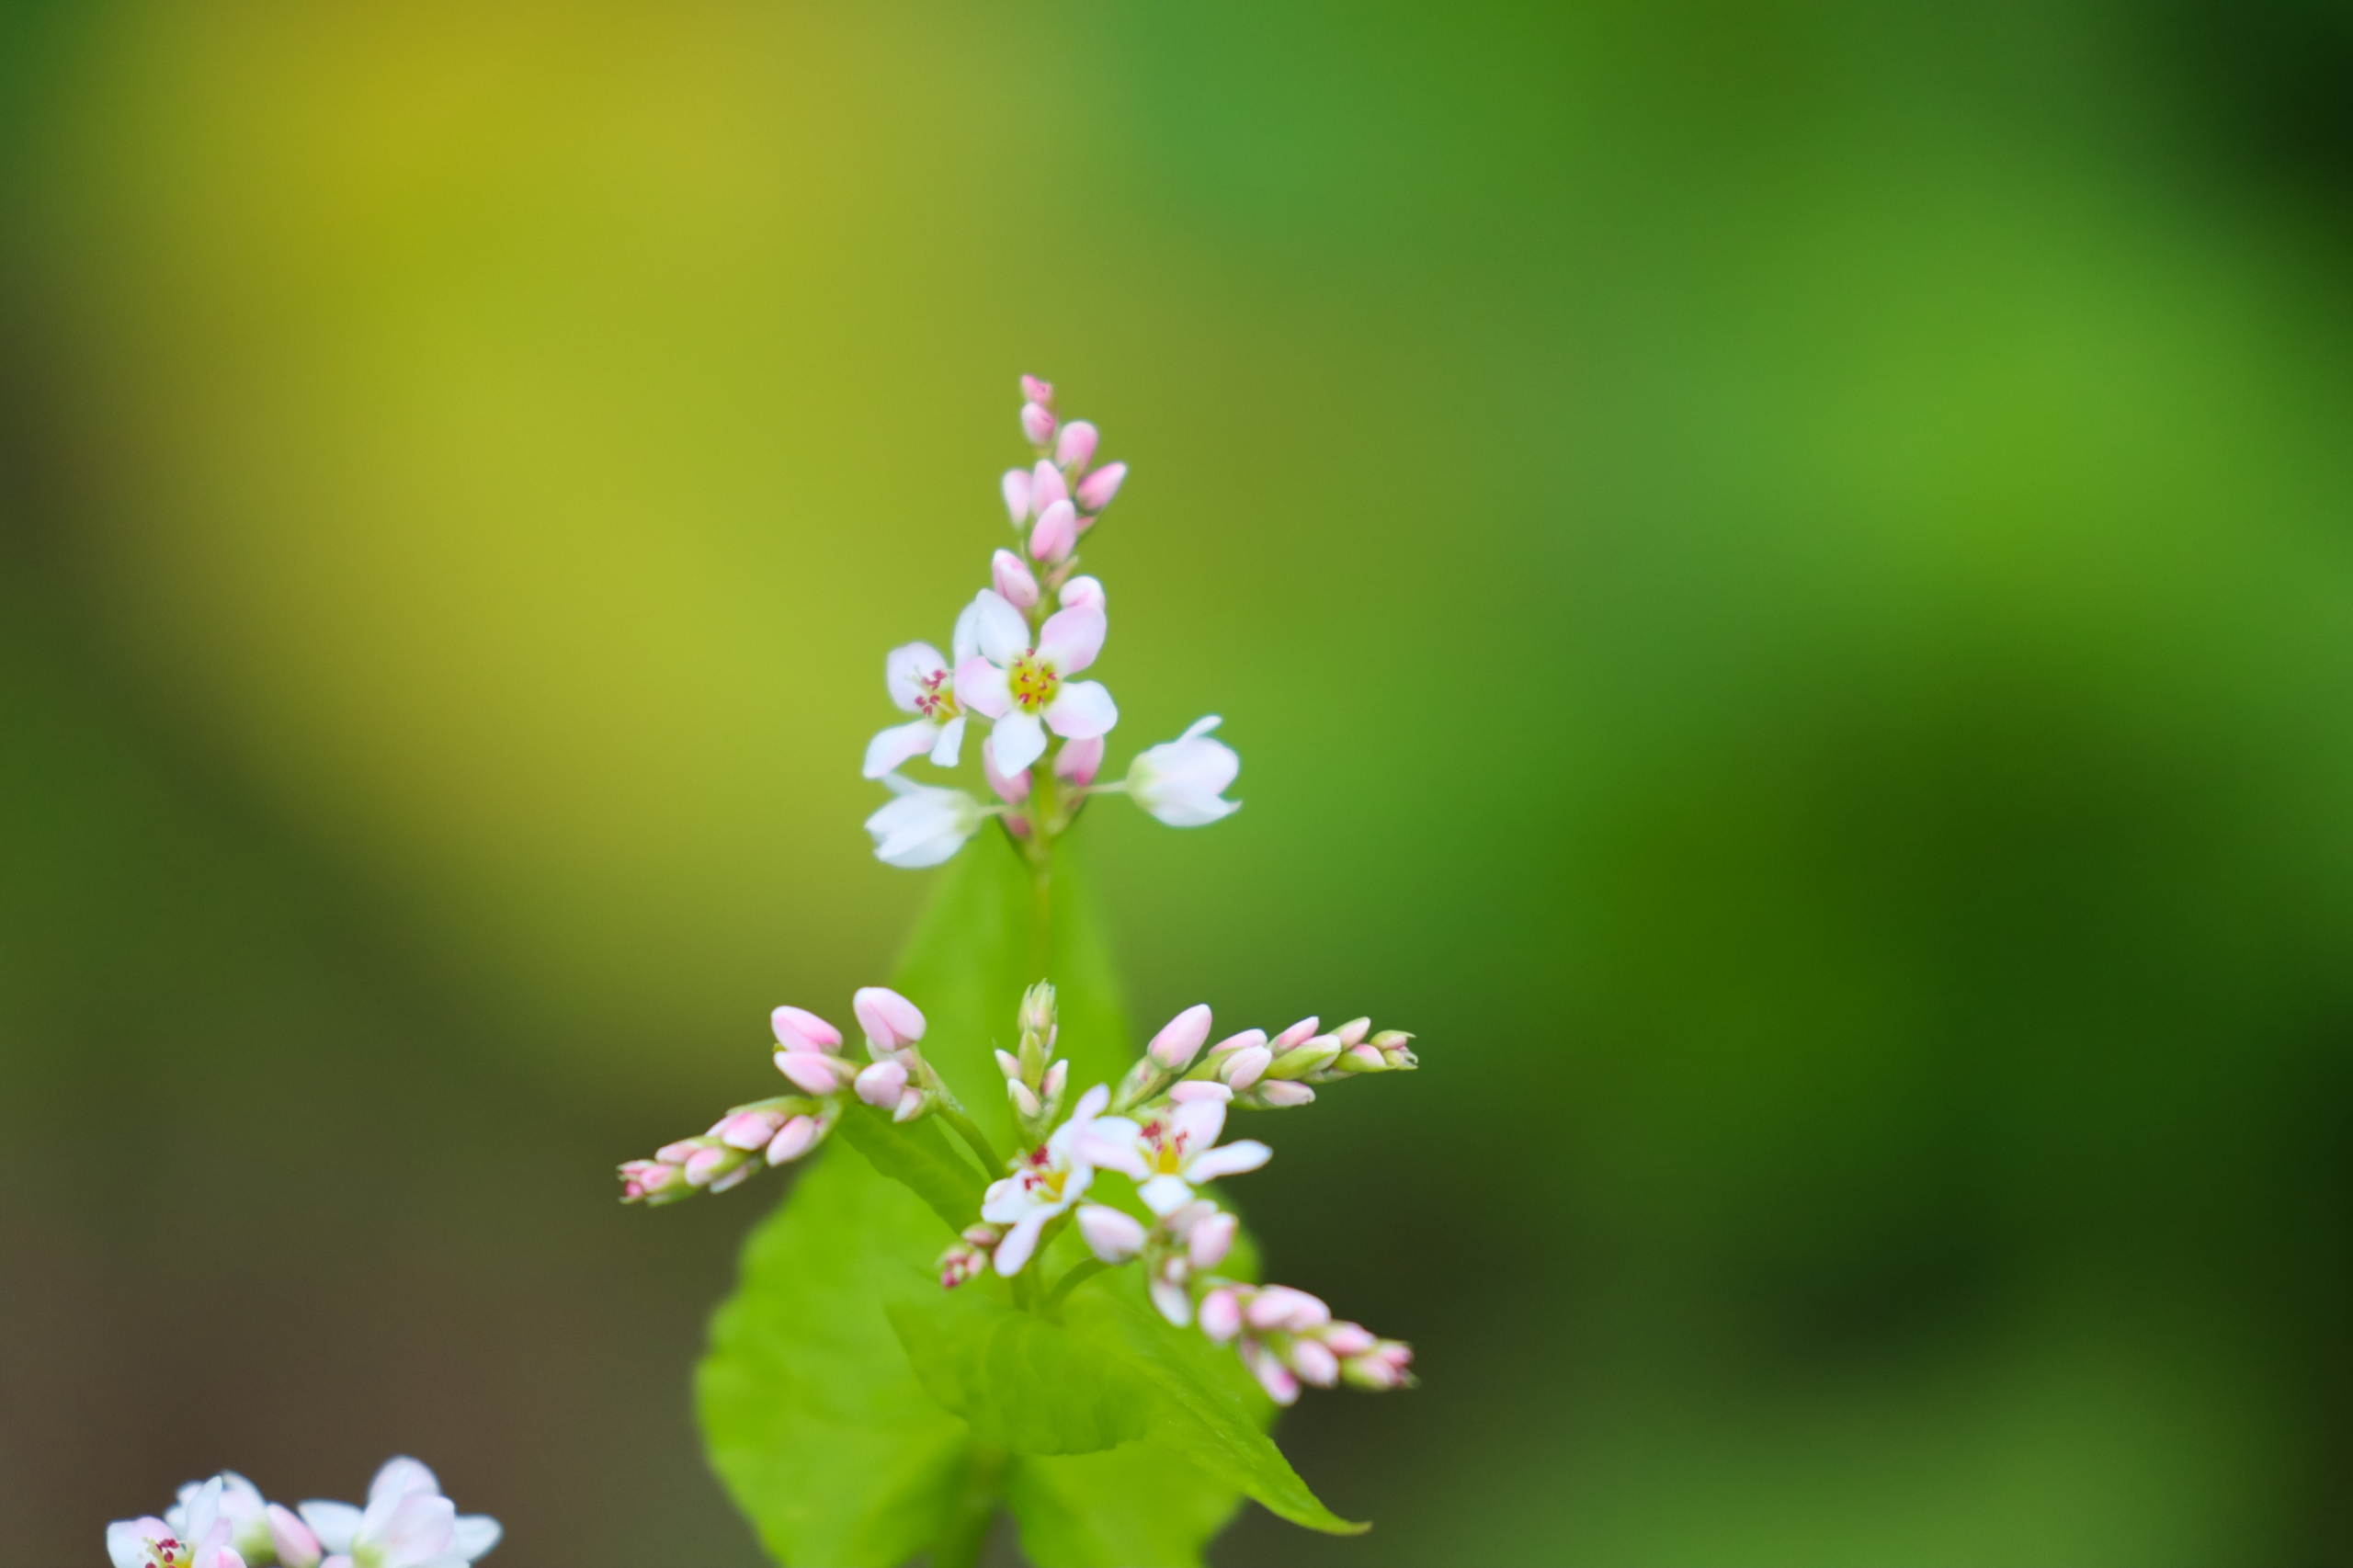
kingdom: Plantae
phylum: Tracheophyta
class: Magnoliopsida
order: Caryophyllales
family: Polygonaceae
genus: Fagopyrum
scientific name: Fagopyrum esculentum
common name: Almindelig boghvede
